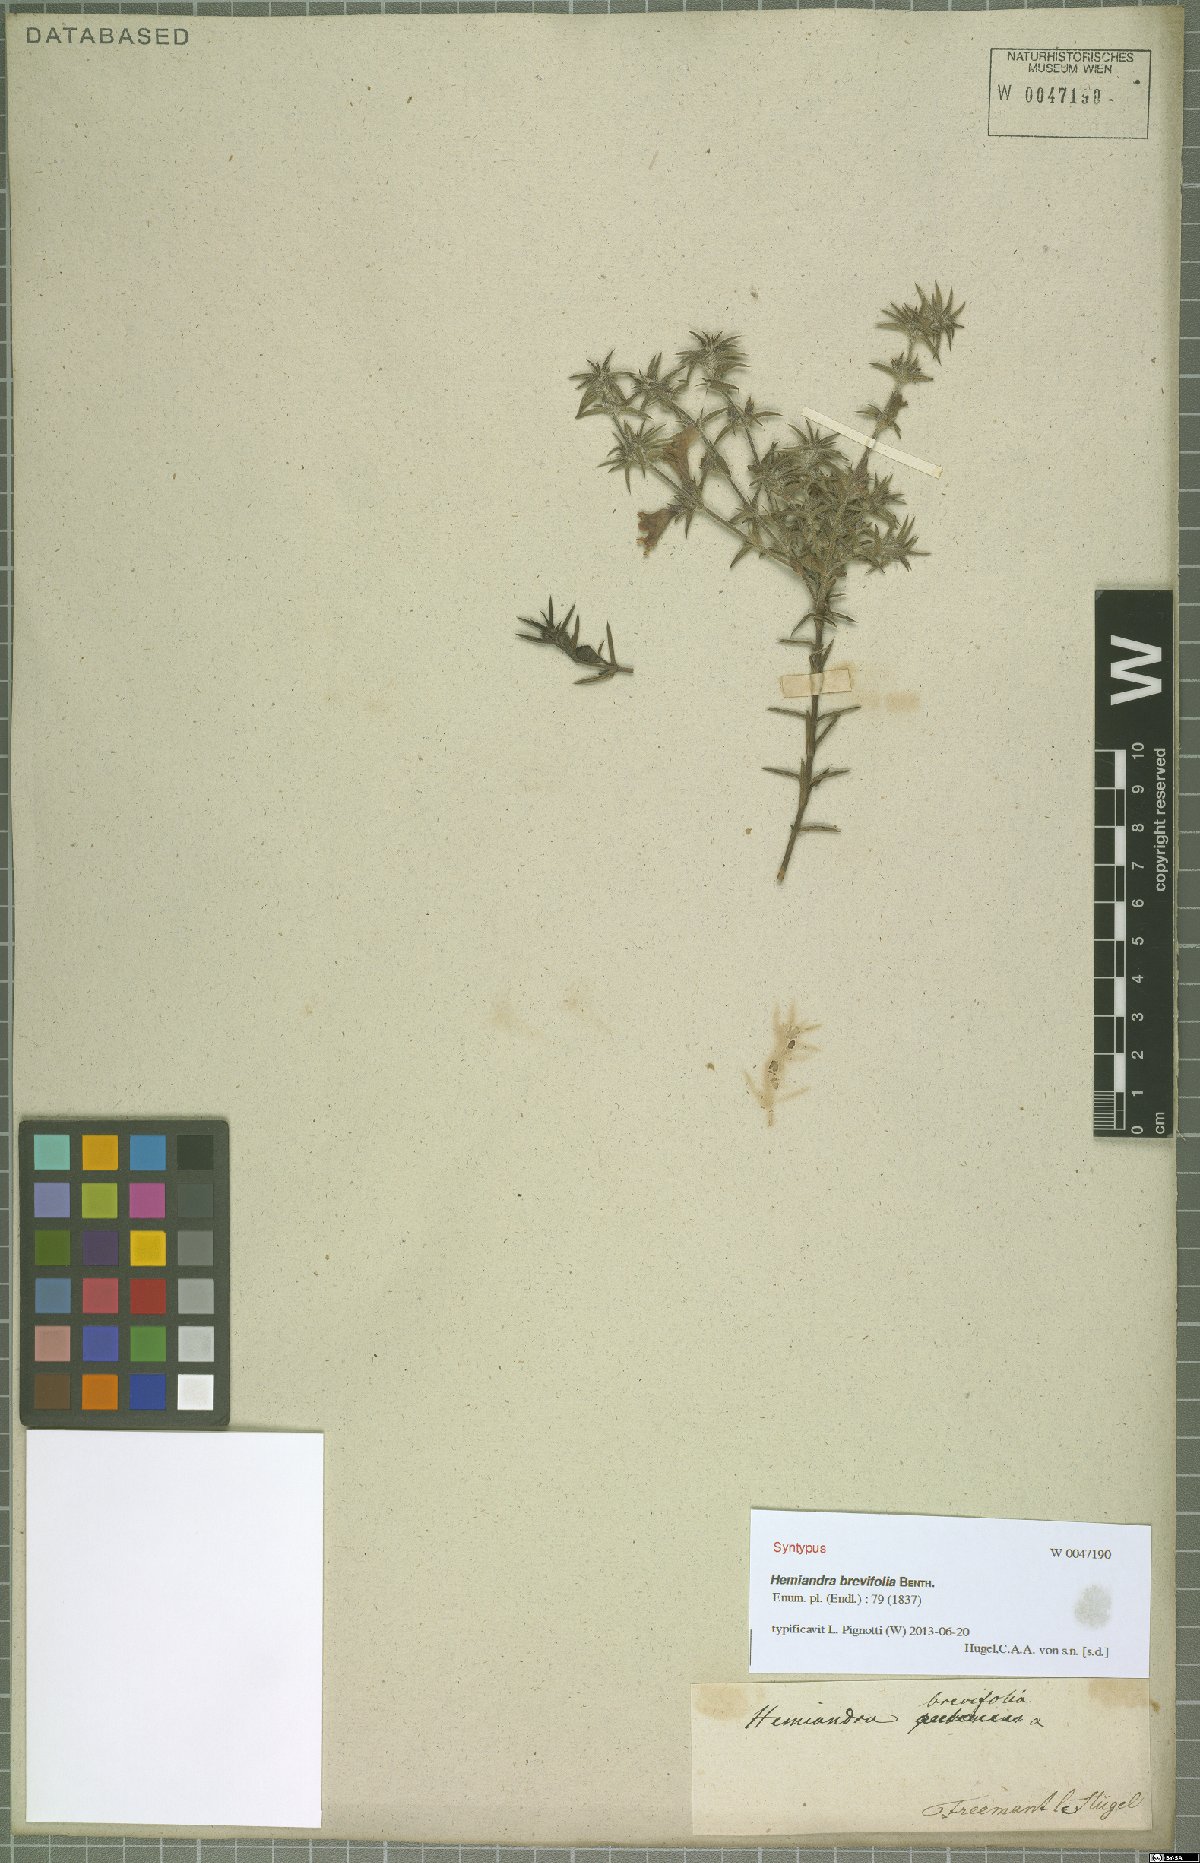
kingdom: Plantae
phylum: Tracheophyta
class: Magnoliopsida
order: Lamiales
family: Lamiaceae
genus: Hemiandra
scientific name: Hemiandra pungens
